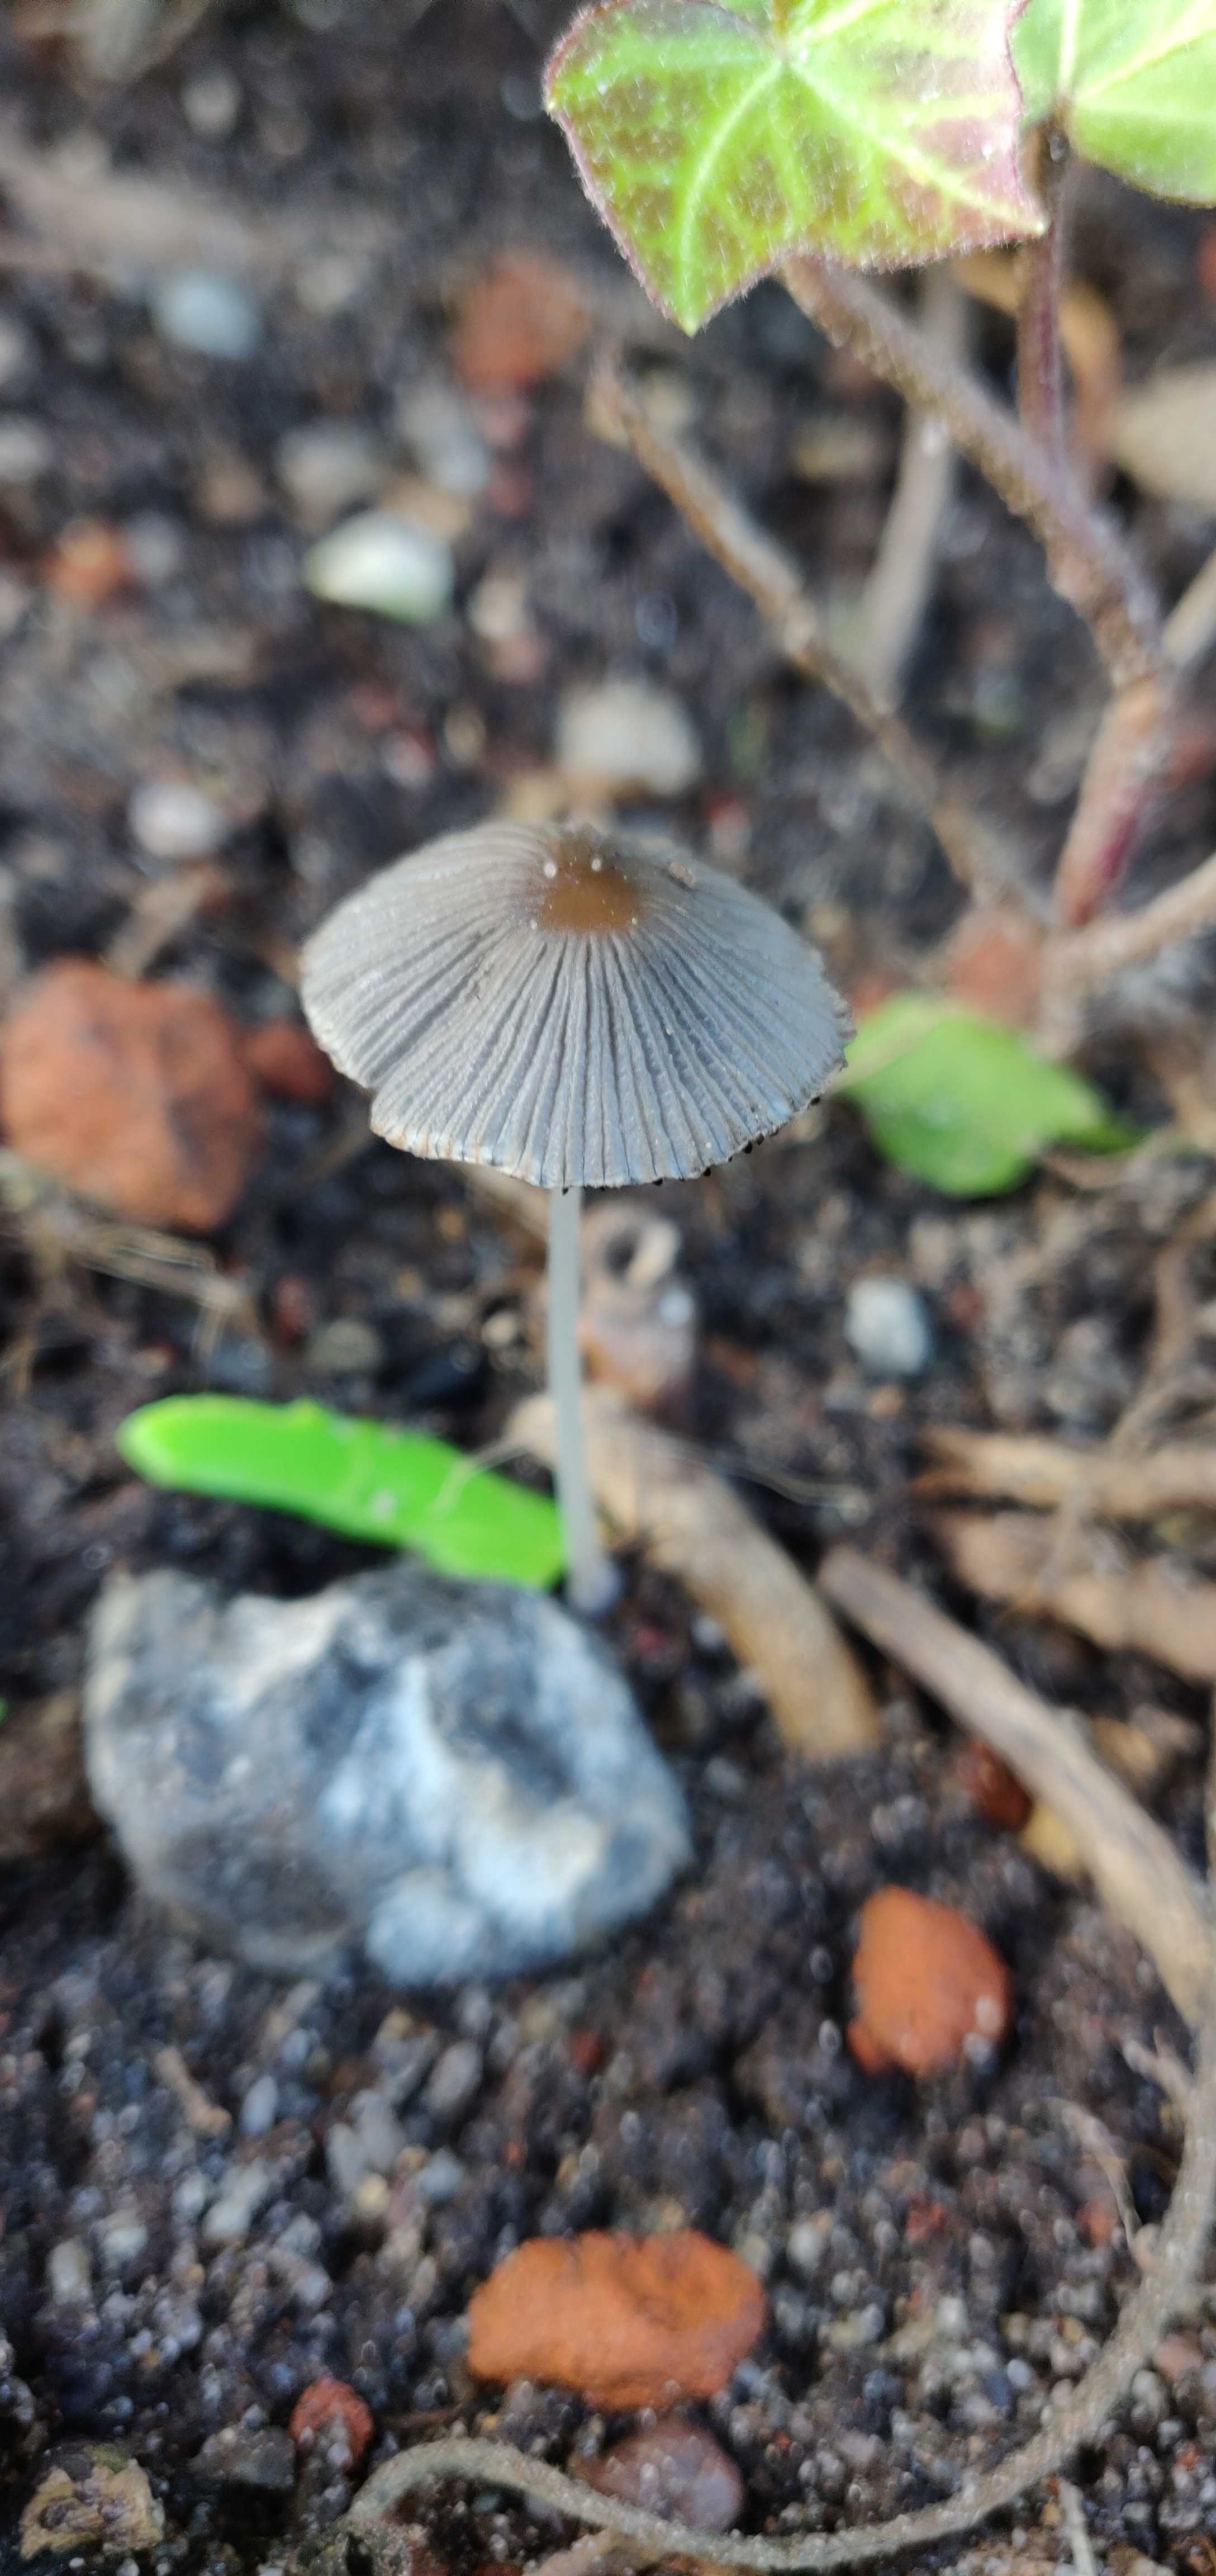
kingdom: Fungi
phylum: Basidiomycota
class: Agaricomycetes
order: Agaricales
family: Psathyrellaceae
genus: Parasola
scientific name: Parasola
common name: hjulhat
